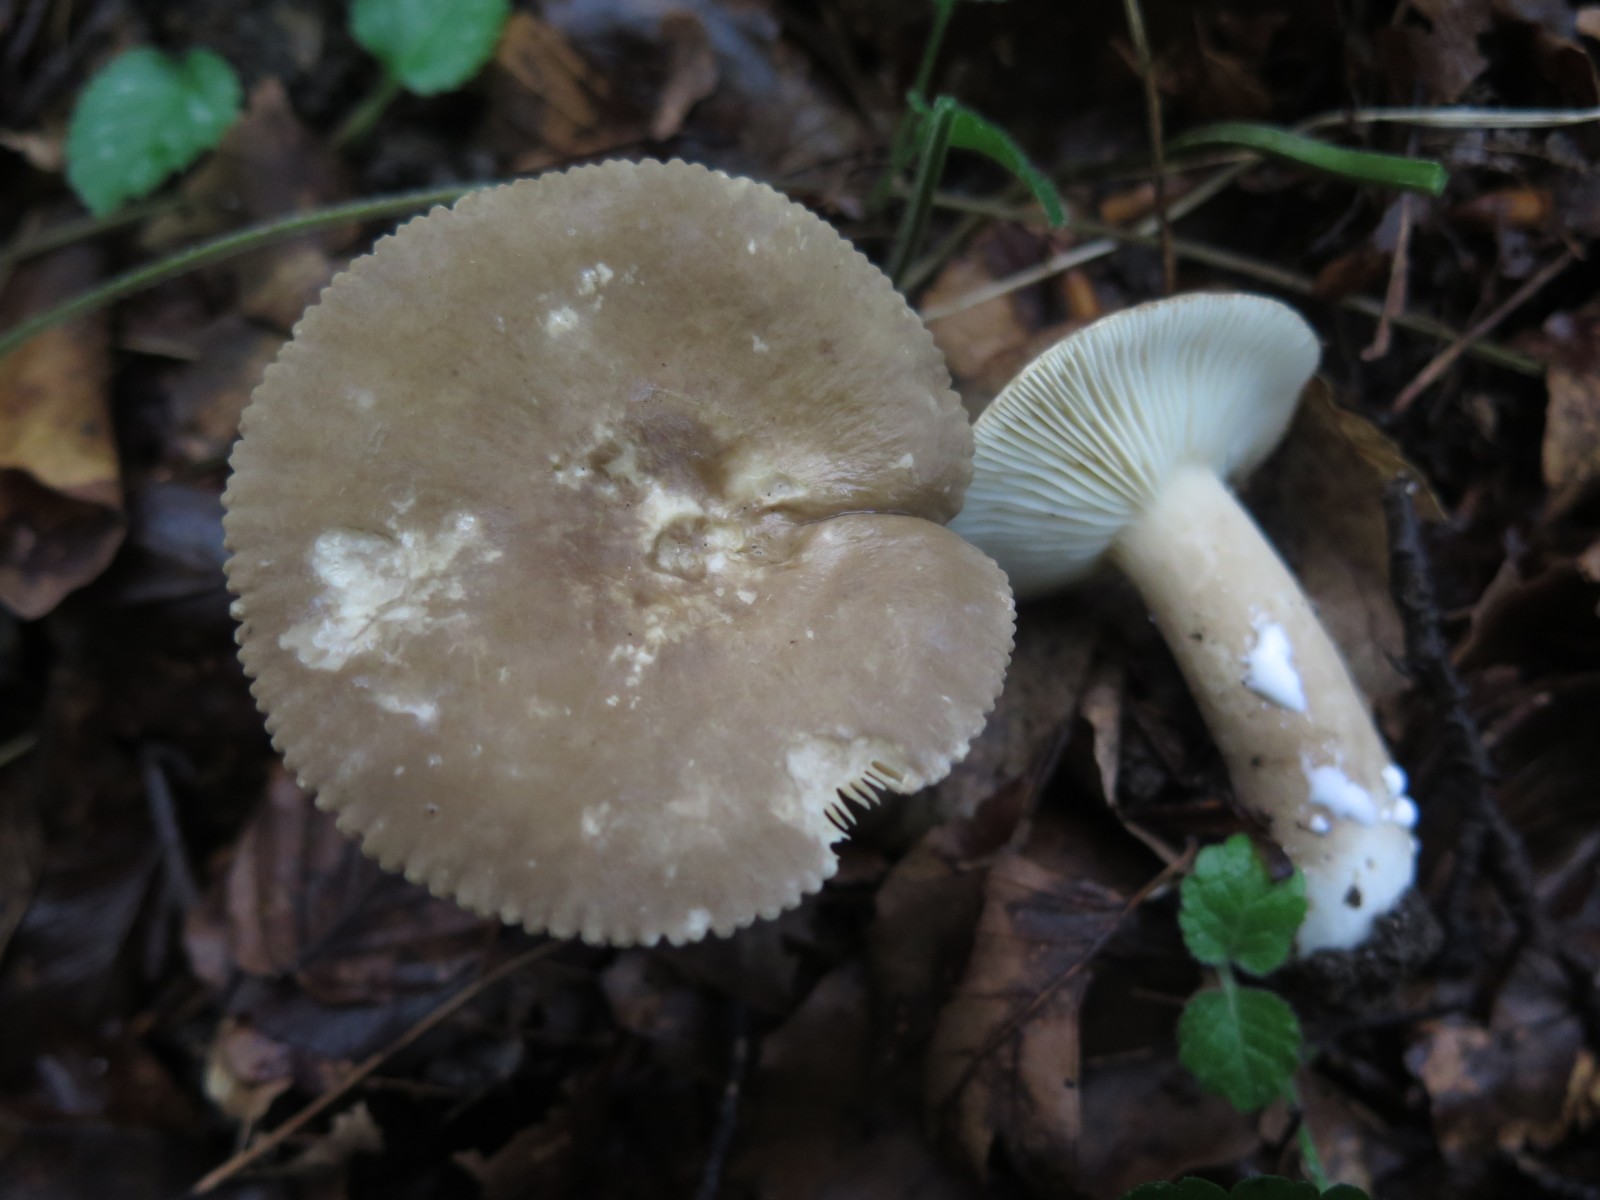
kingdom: Fungi
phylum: Basidiomycota
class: Agaricomycetes
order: Russulales
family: Russulaceae
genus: Lactarius
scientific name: Lactarius subdulcis
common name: sødlig mælkehat
